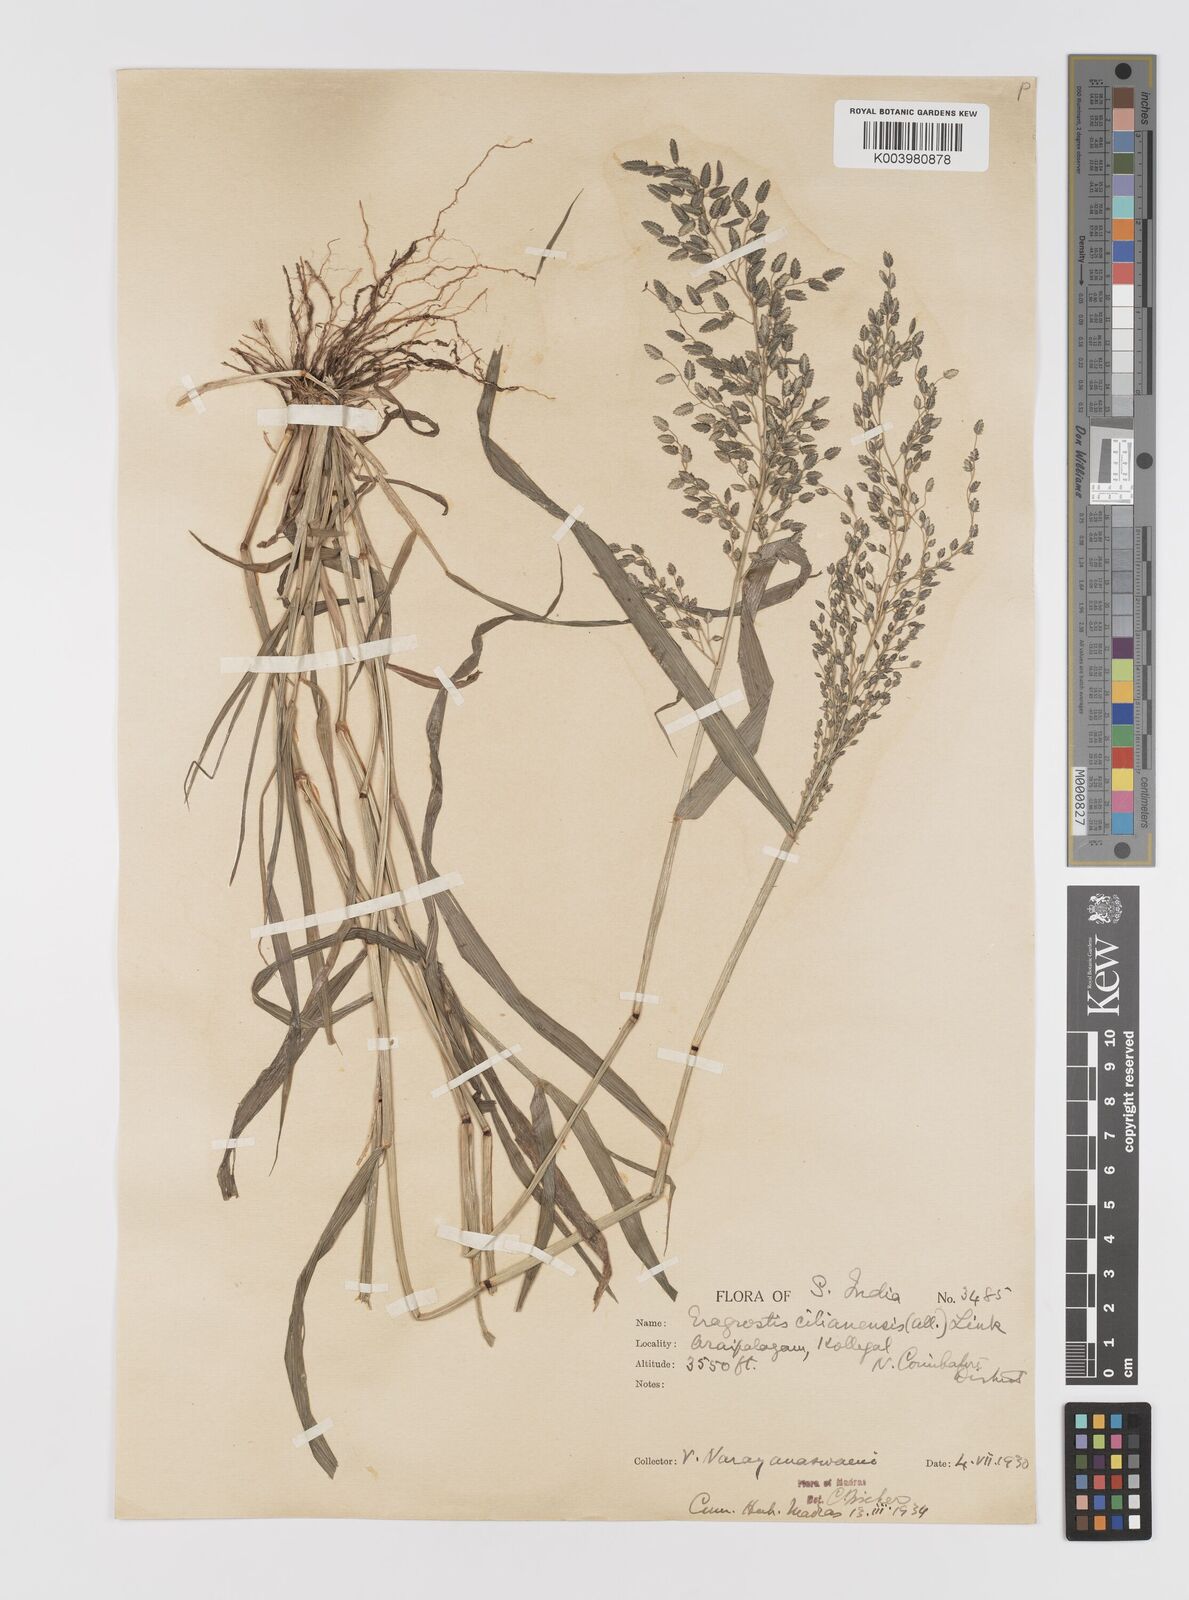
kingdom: Plantae
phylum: Tracheophyta
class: Liliopsida
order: Poales
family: Poaceae
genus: Eragrostis
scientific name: Eragrostis cilianensis
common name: Stinkgrass
